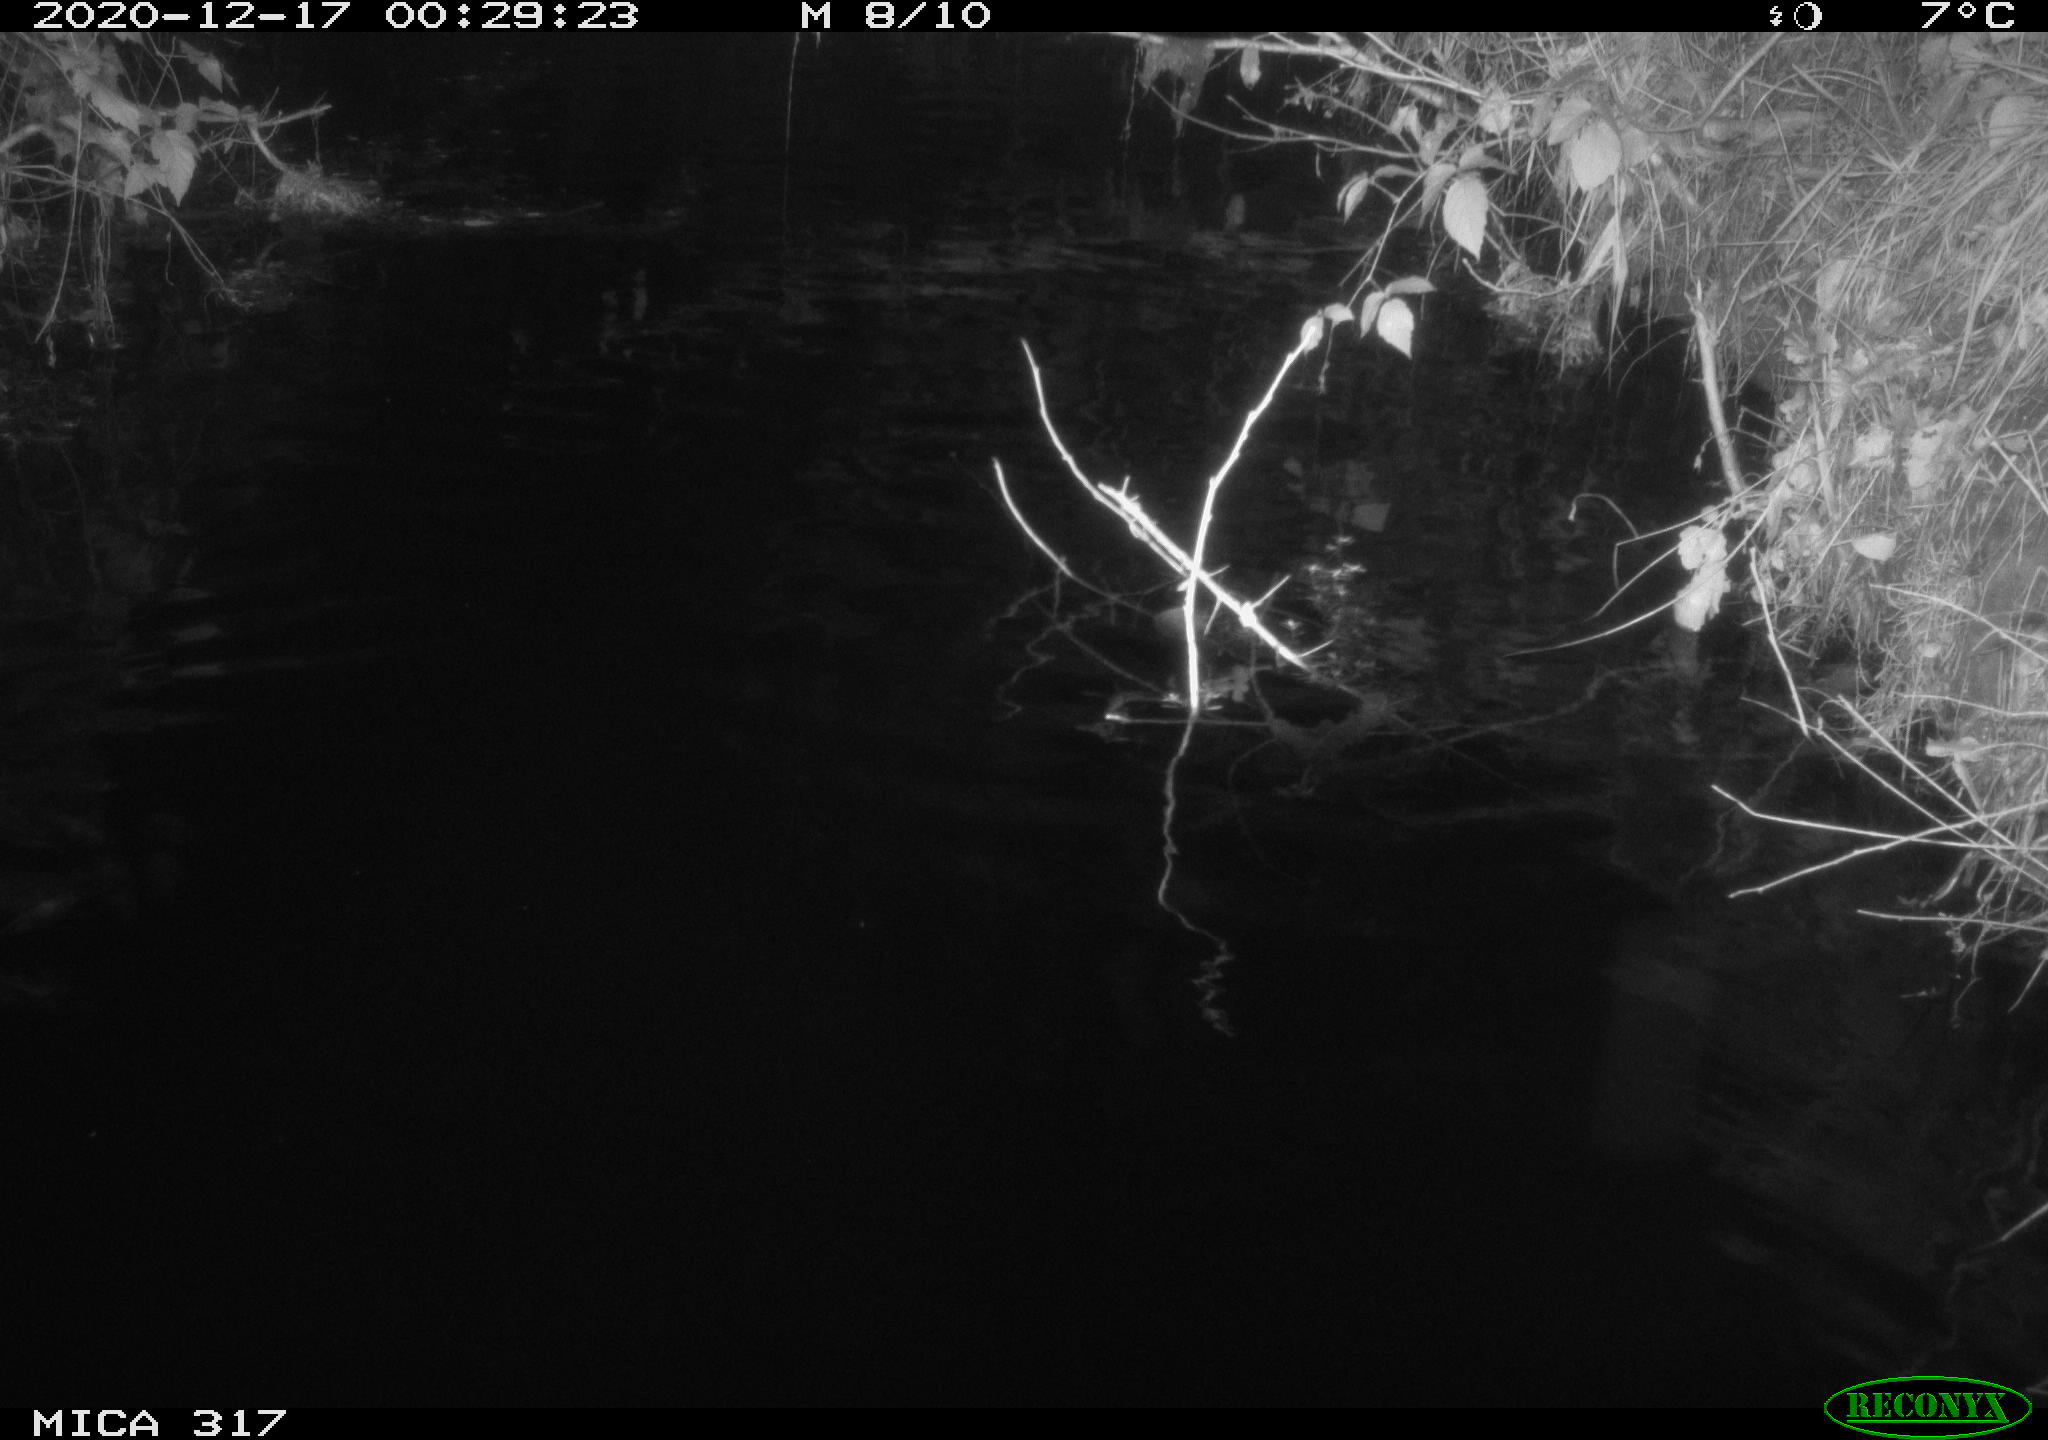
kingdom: Animalia
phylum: Chordata
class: Mammalia
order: Rodentia
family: Muridae
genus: Rattus
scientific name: Rattus norvegicus
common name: Brown rat
